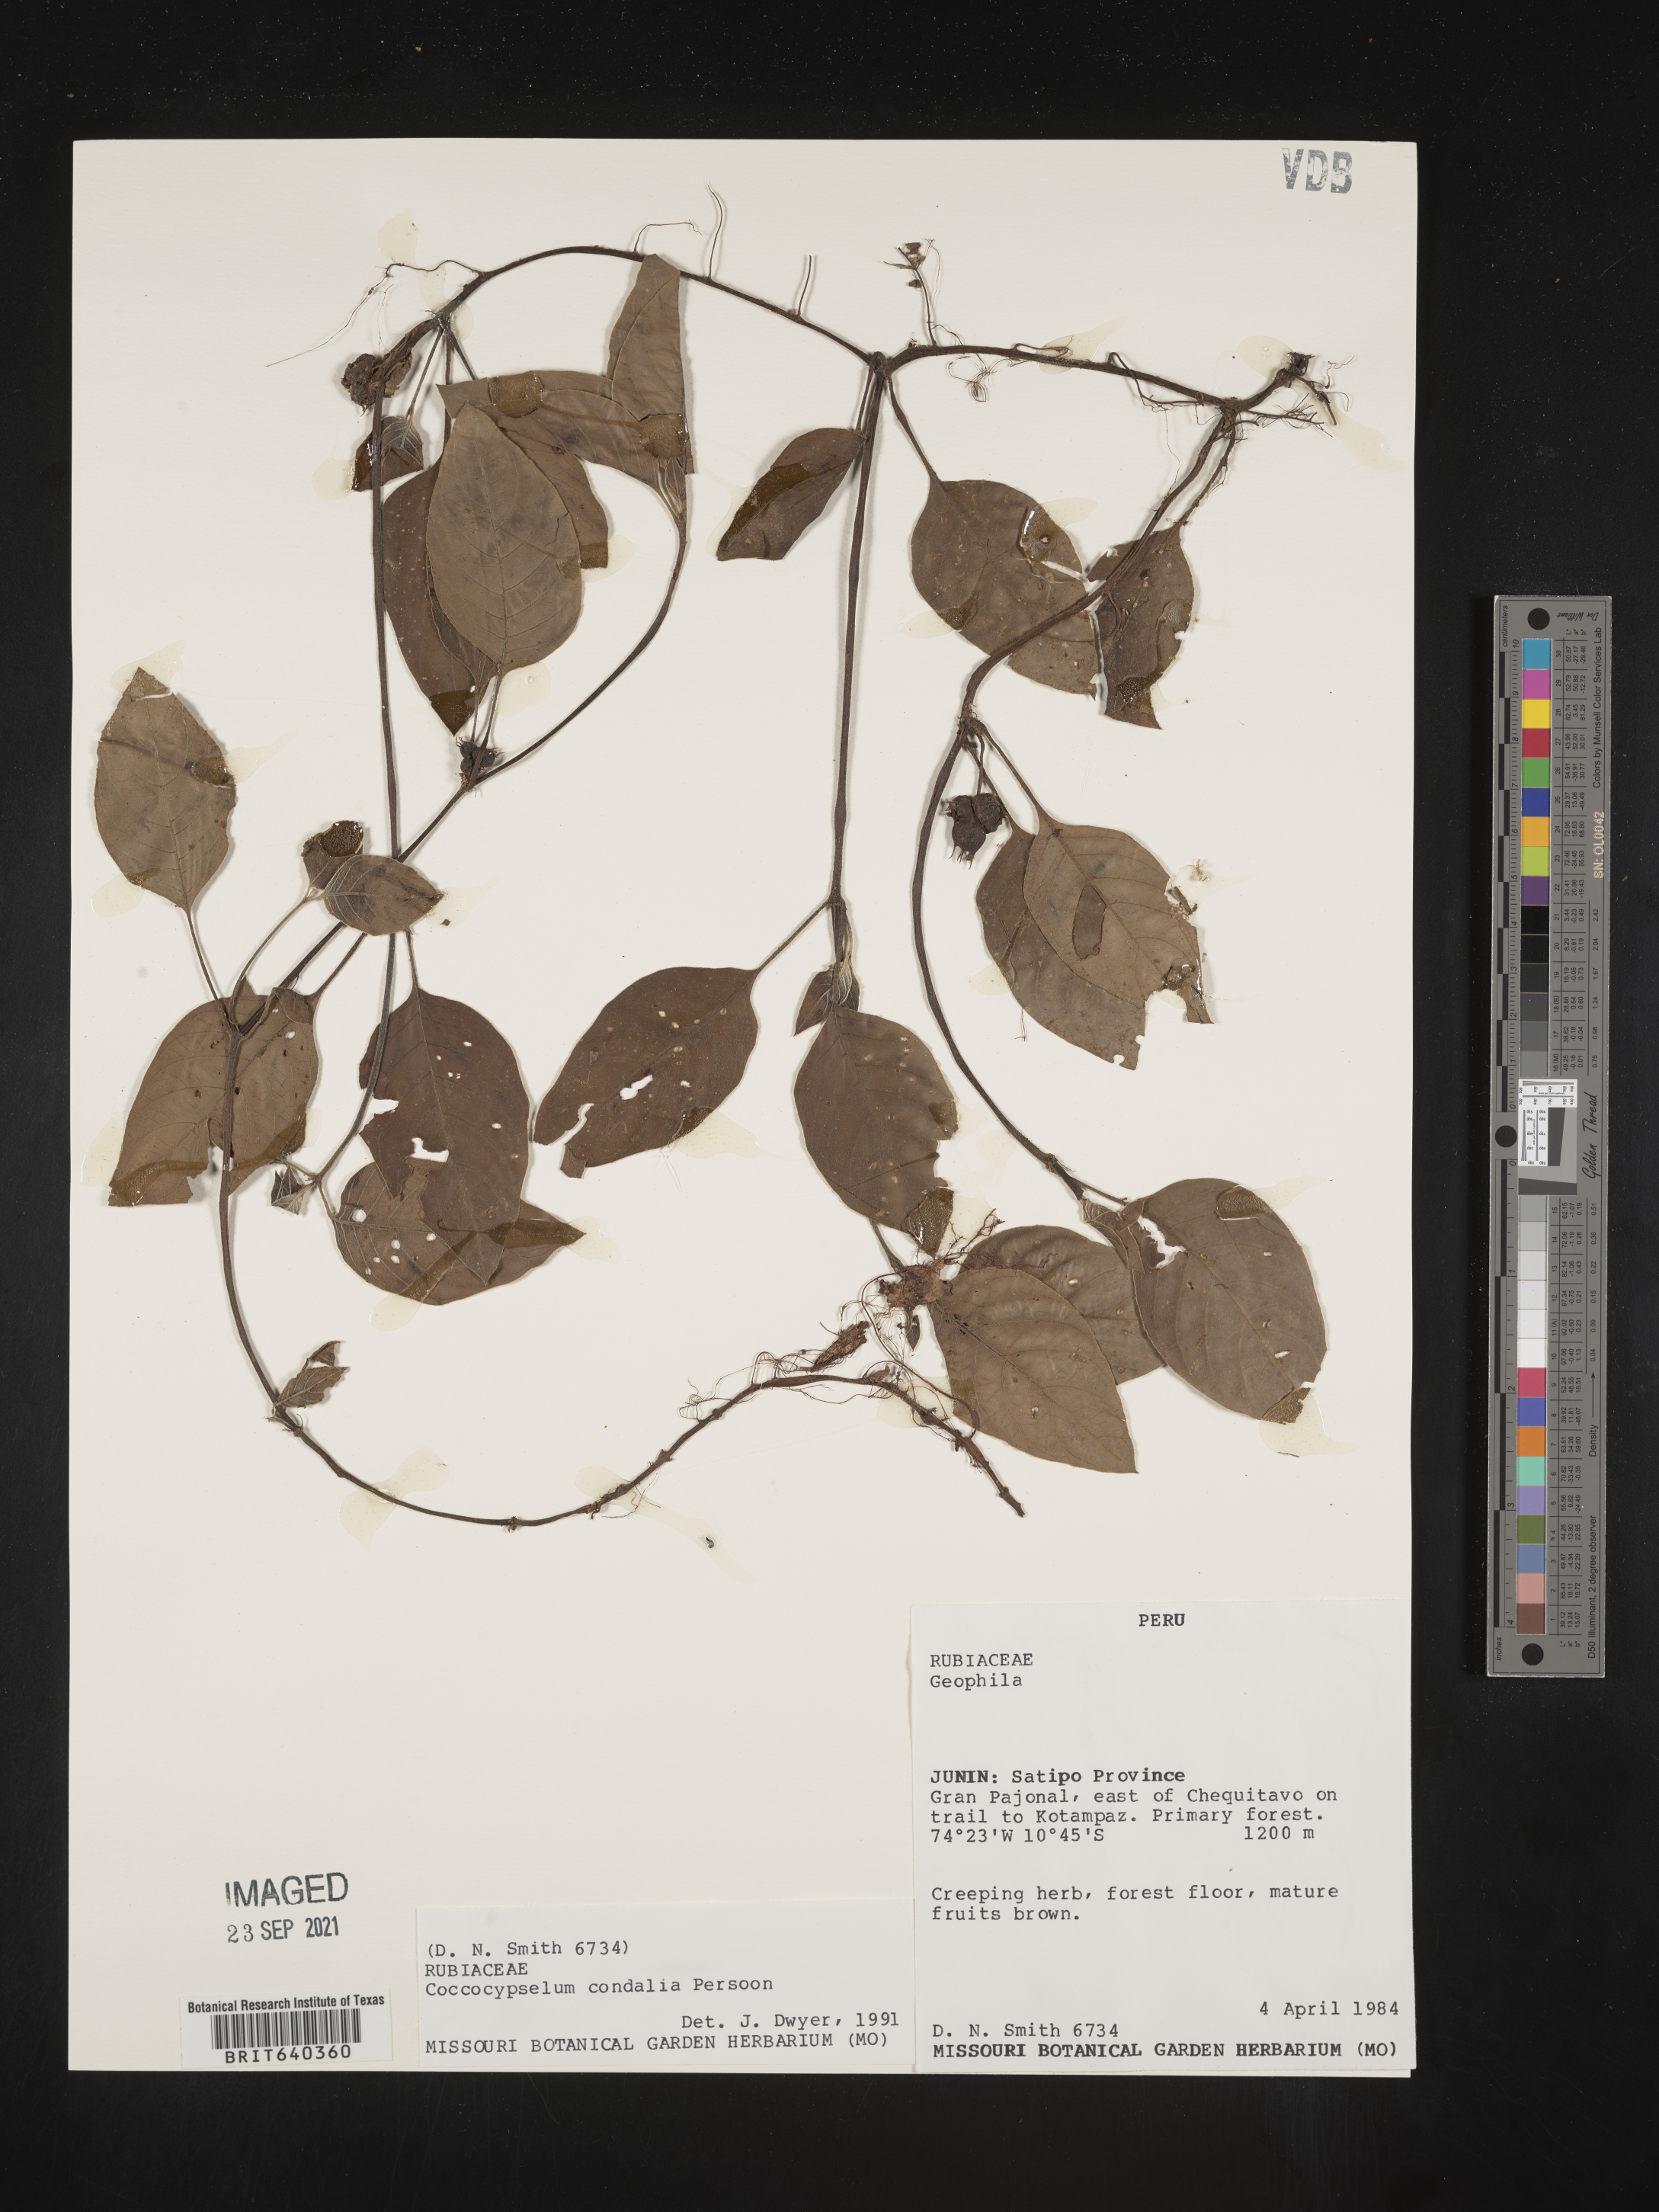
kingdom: Plantae
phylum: Tracheophyta
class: Magnoliopsida
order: Gentianales
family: Rubiaceae
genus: Coccocypselum
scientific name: Coccocypselum
